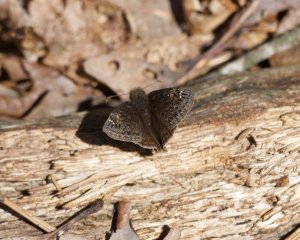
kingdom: Animalia
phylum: Arthropoda
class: Insecta
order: Lepidoptera
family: Hesperiidae
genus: Gesta
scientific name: Gesta
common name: Juvenal's Duskywing
